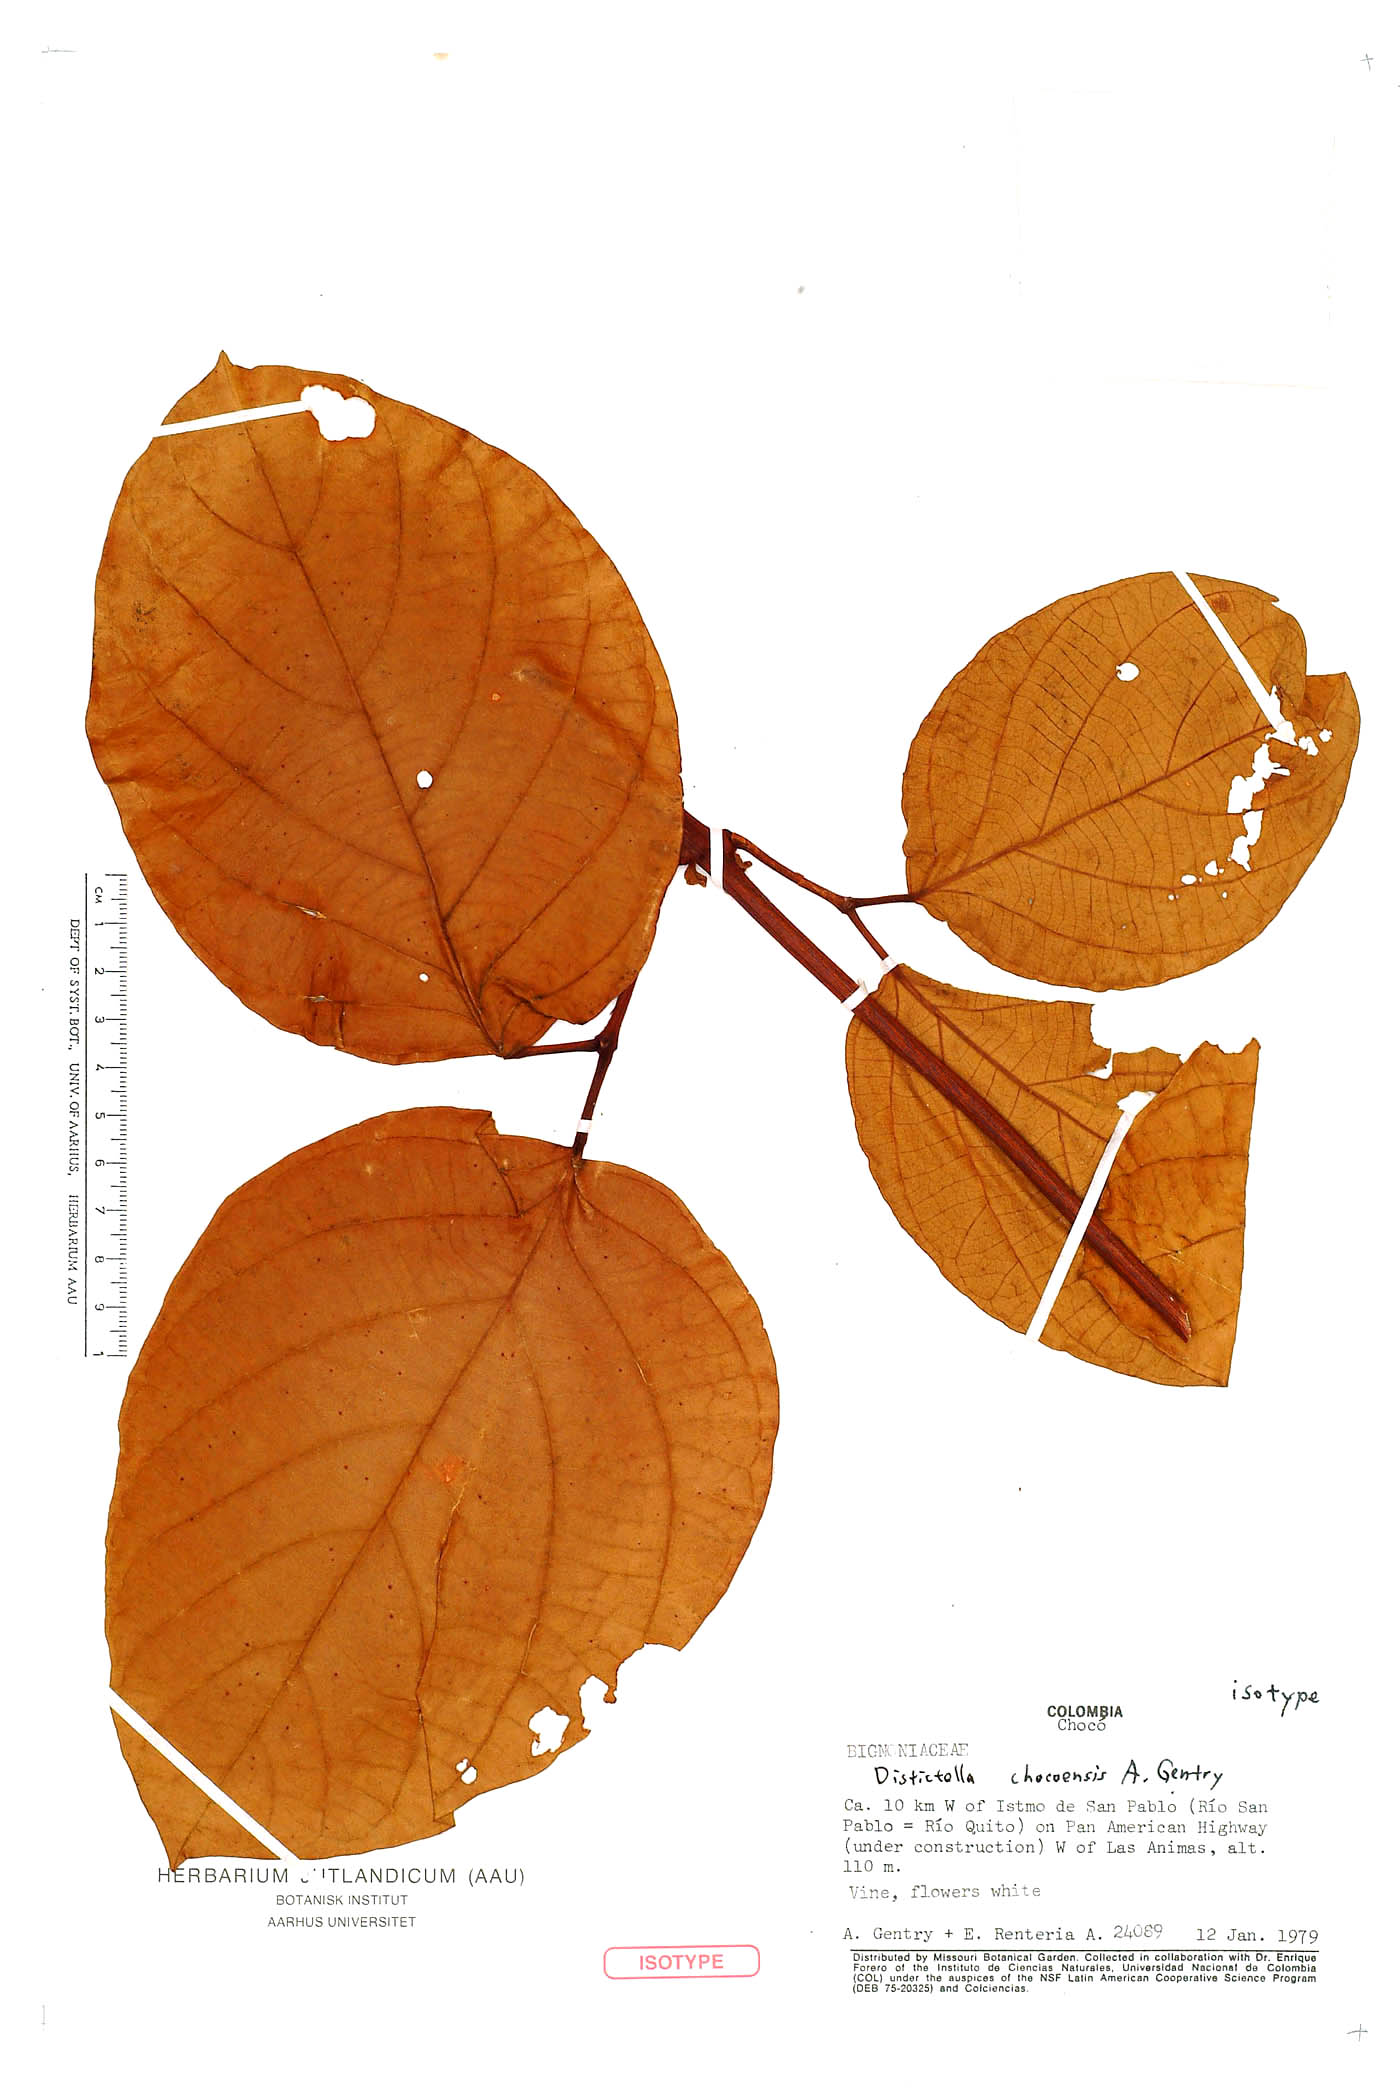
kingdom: Plantae
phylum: Tracheophyta
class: Magnoliopsida
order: Lamiales
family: Bignoniaceae
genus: Amphilophium
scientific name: Amphilophium chocoense
